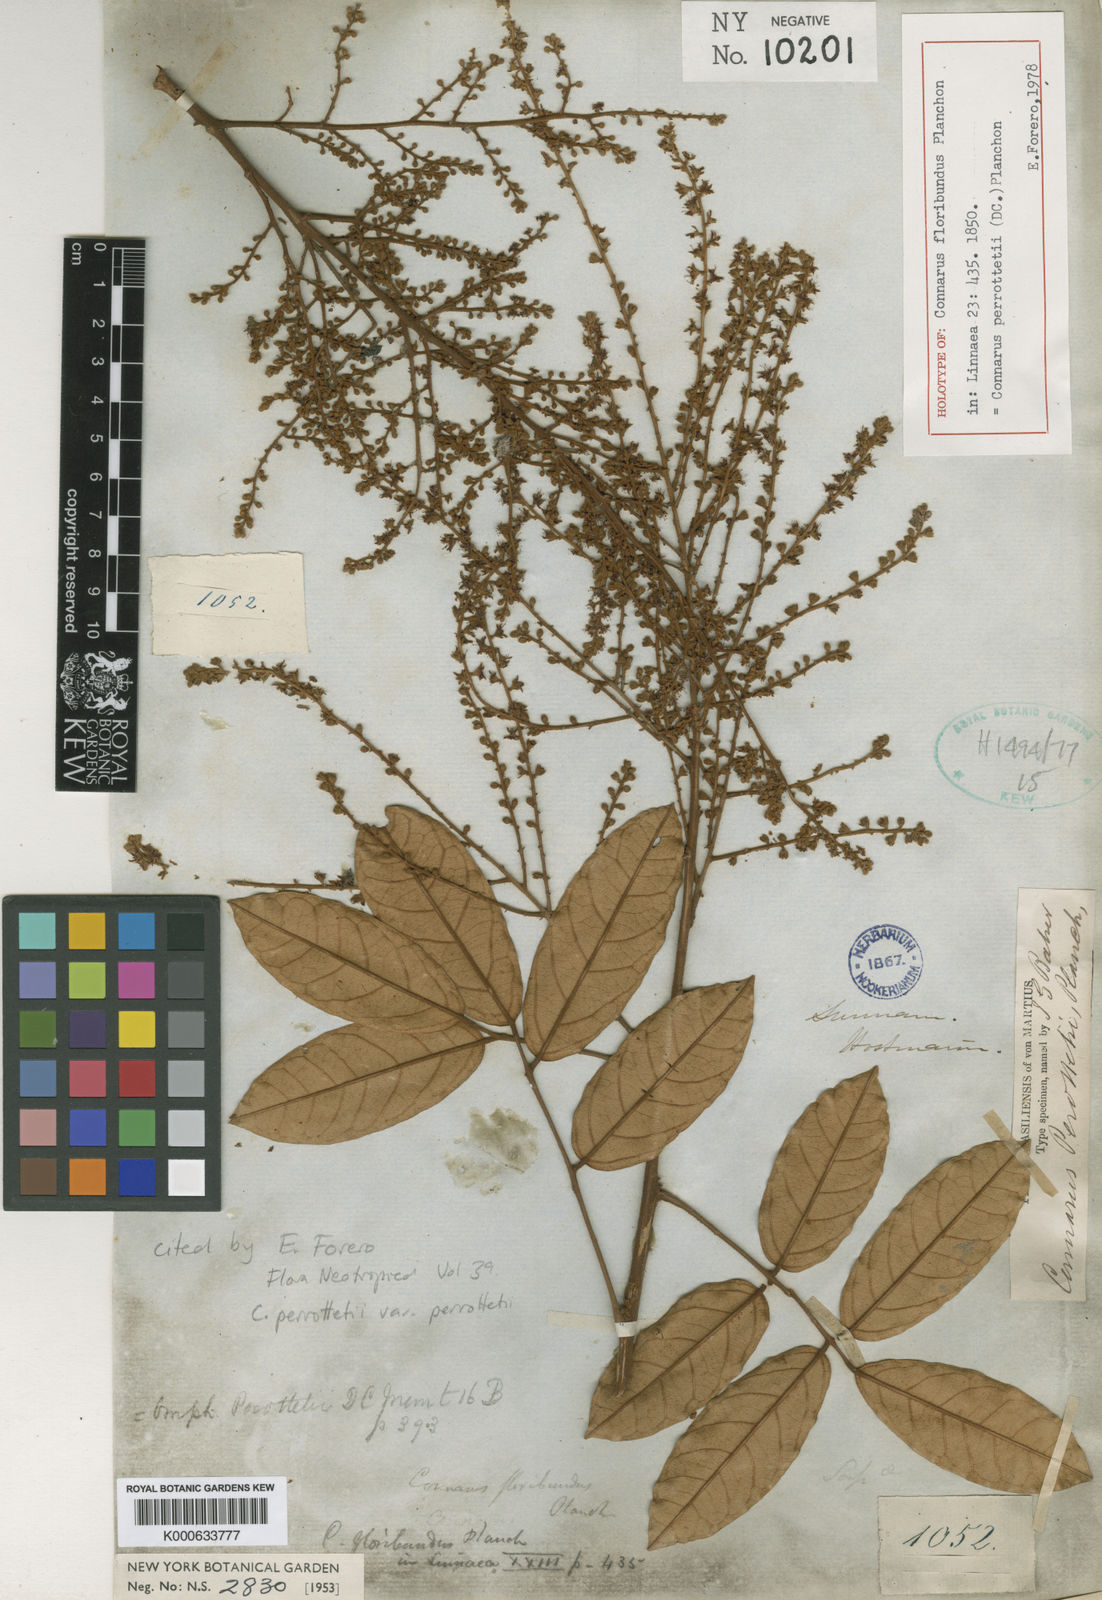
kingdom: Plantae
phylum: Tracheophyta
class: Magnoliopsida
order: Oxalidales
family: Connaraceae
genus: Connarus
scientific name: Connarus perrottetii
